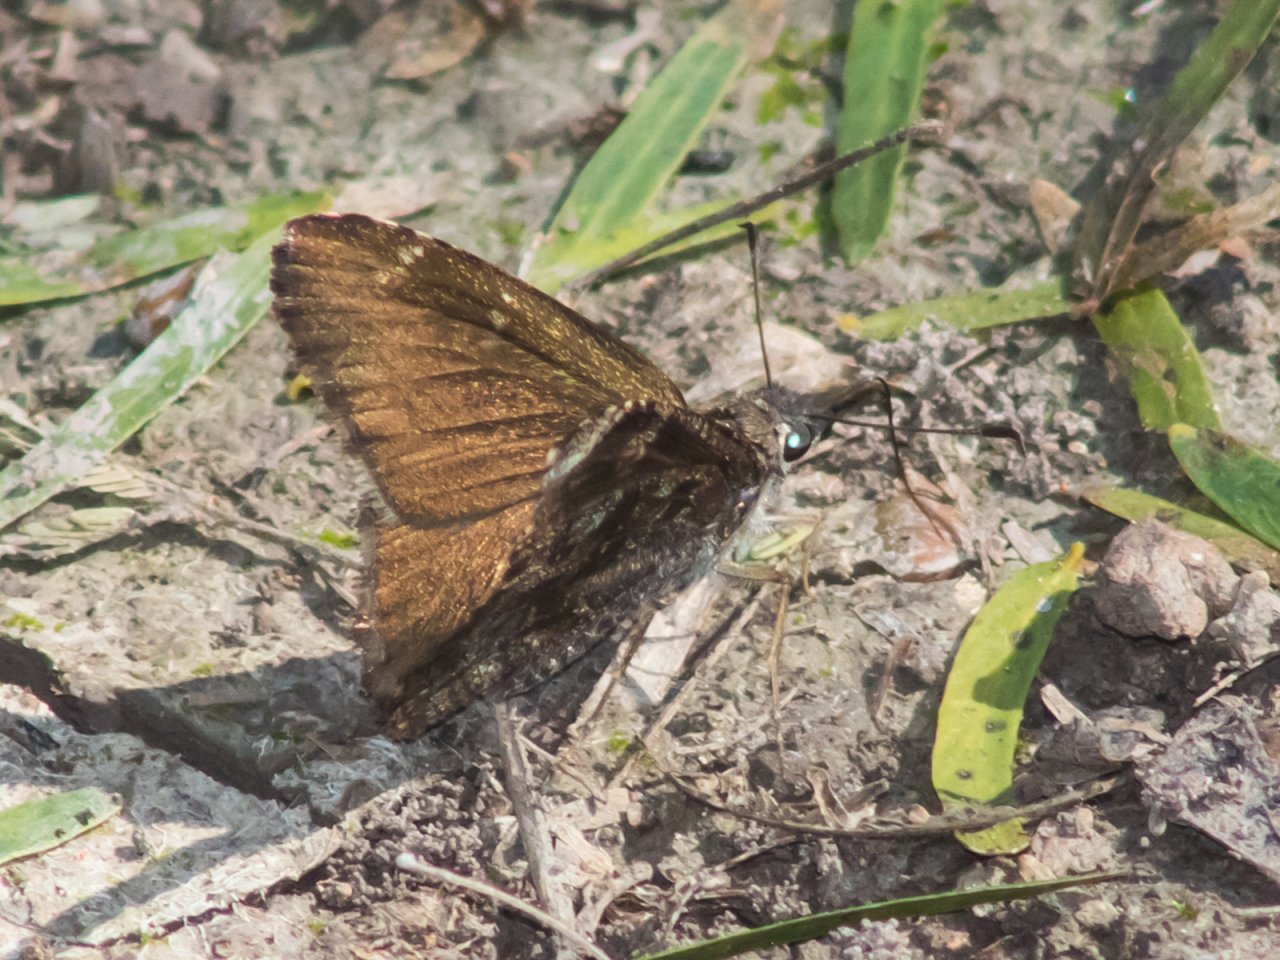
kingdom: Animalia
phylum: Arthropoda
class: Insecta
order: Lepidoptera
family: Hesperiidae
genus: Caicella
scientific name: Caicella calchas
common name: Mimosa Skipper
